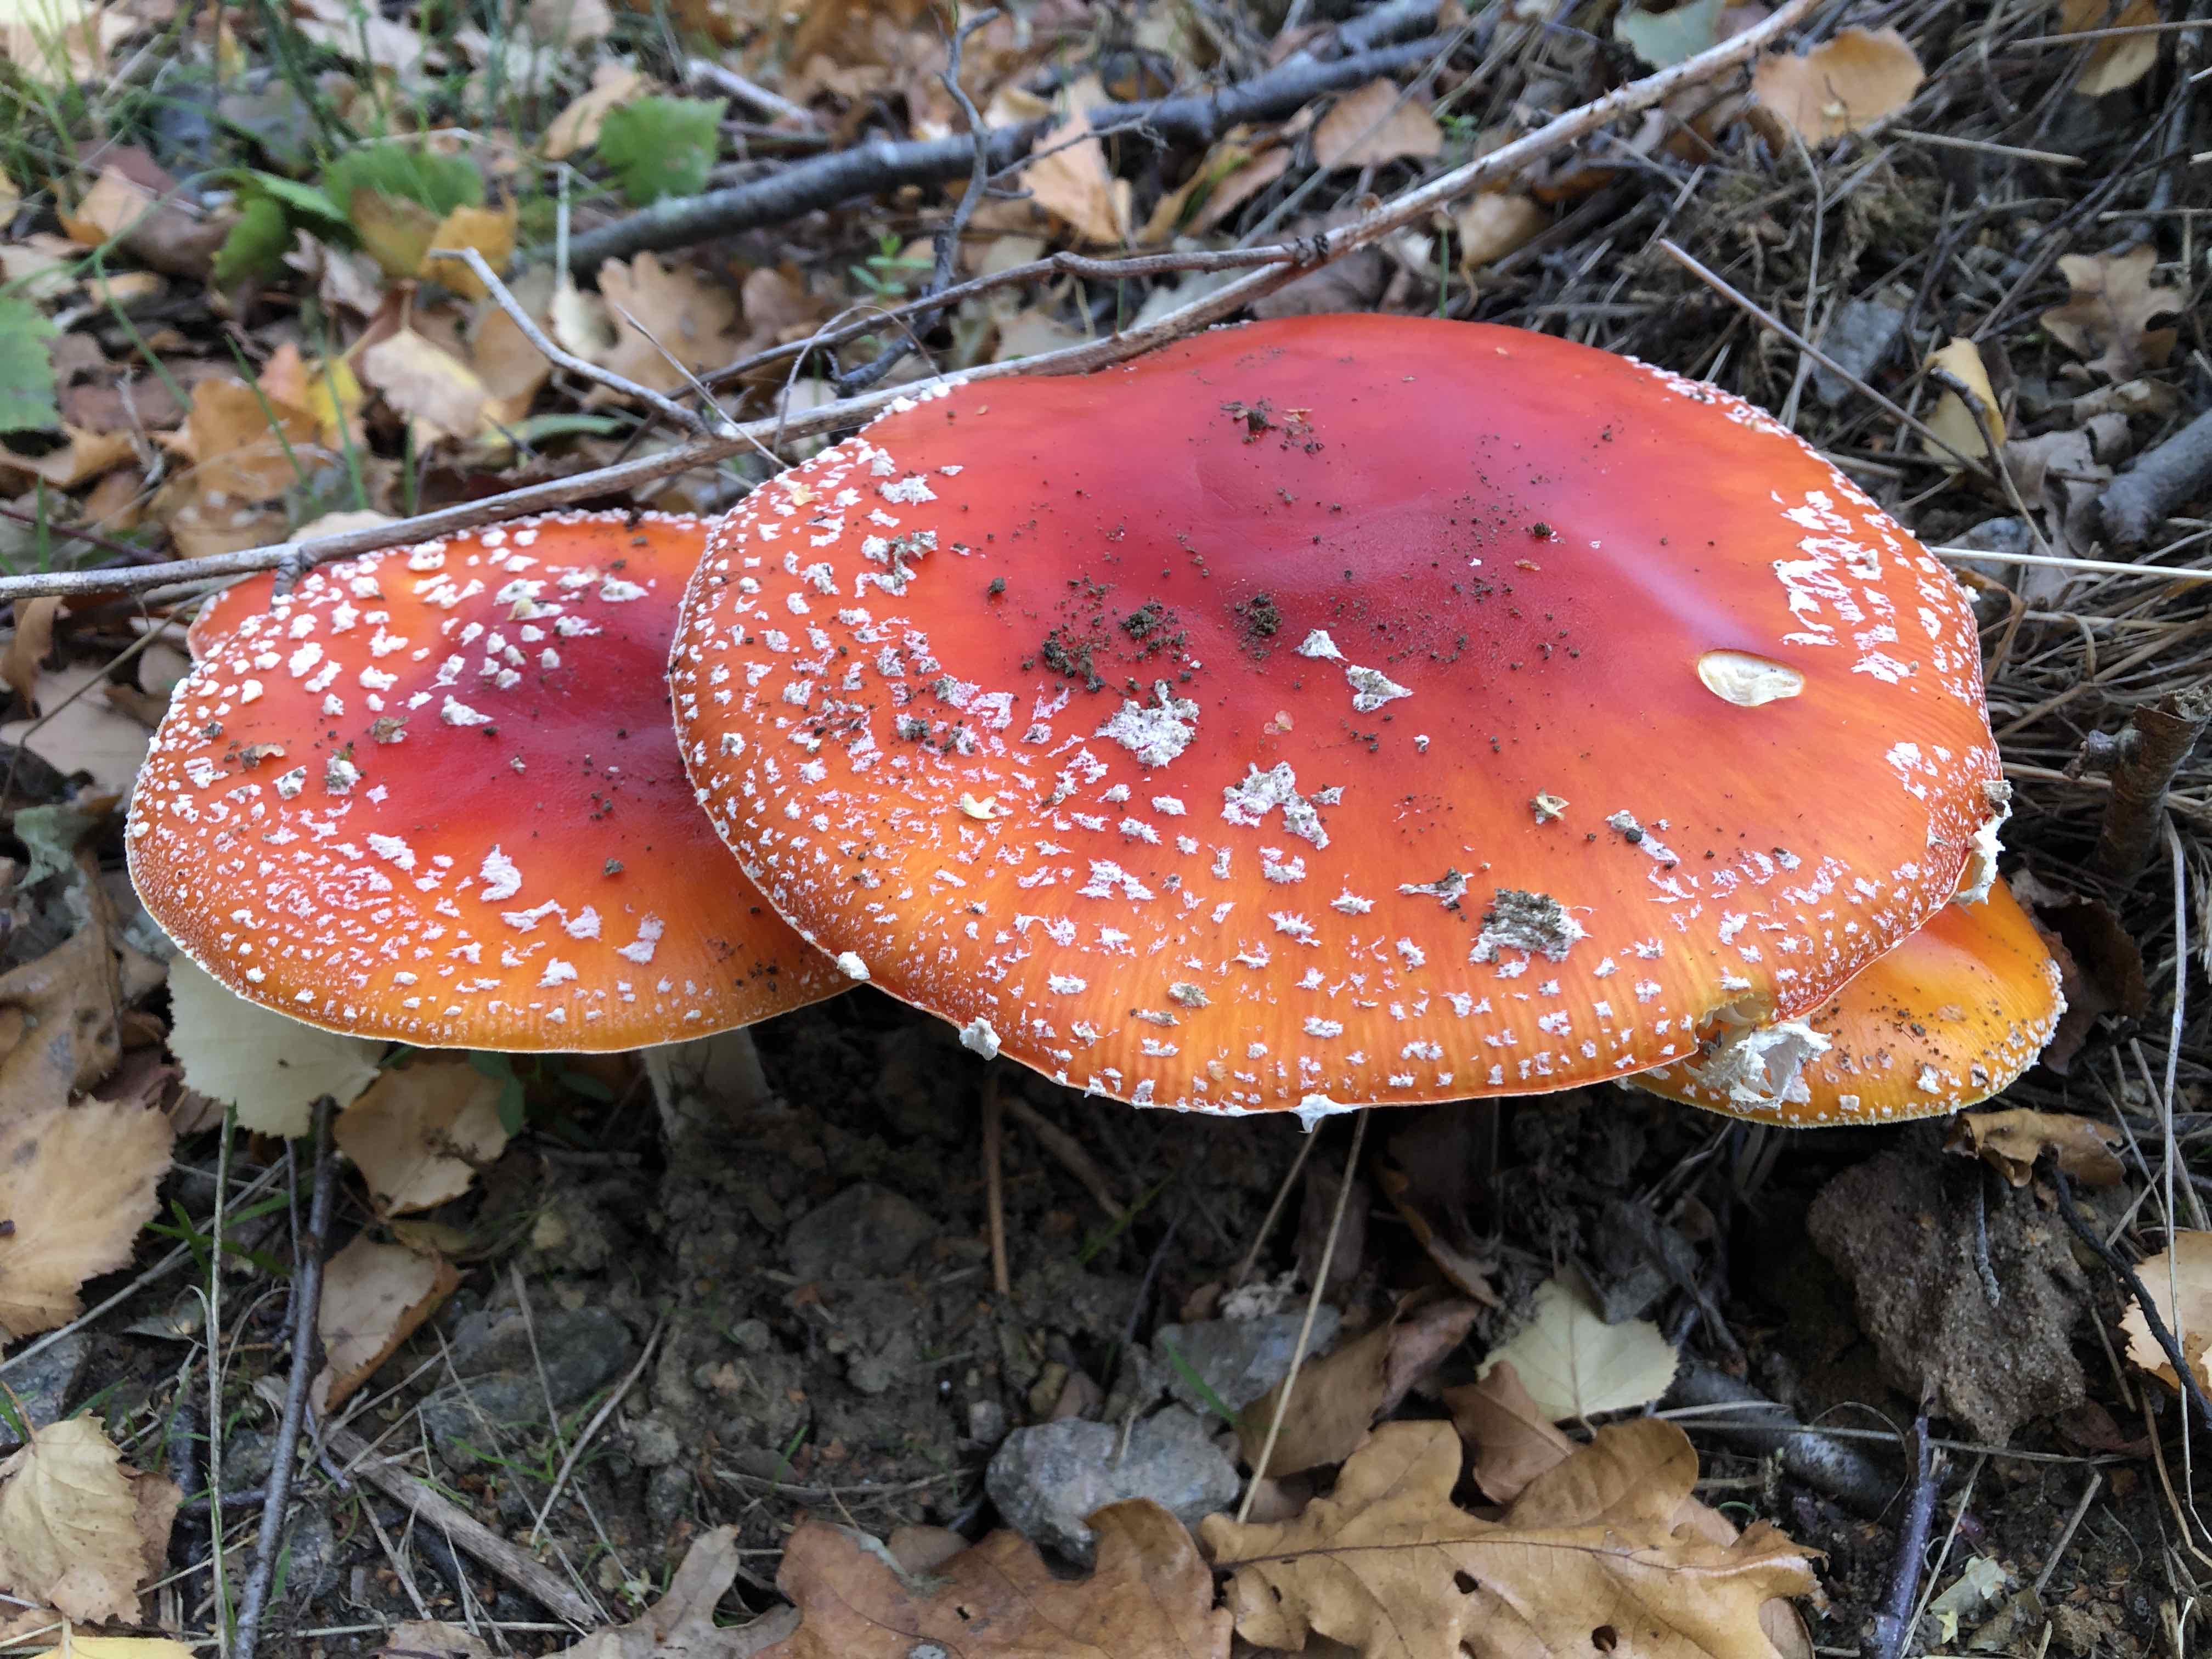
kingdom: Fungi
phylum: Basidiomycota
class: Agaricomycetes
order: Agaricales
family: Amanitaceae
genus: Amanita
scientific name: Amanita muscaria
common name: rød fluesvamp
